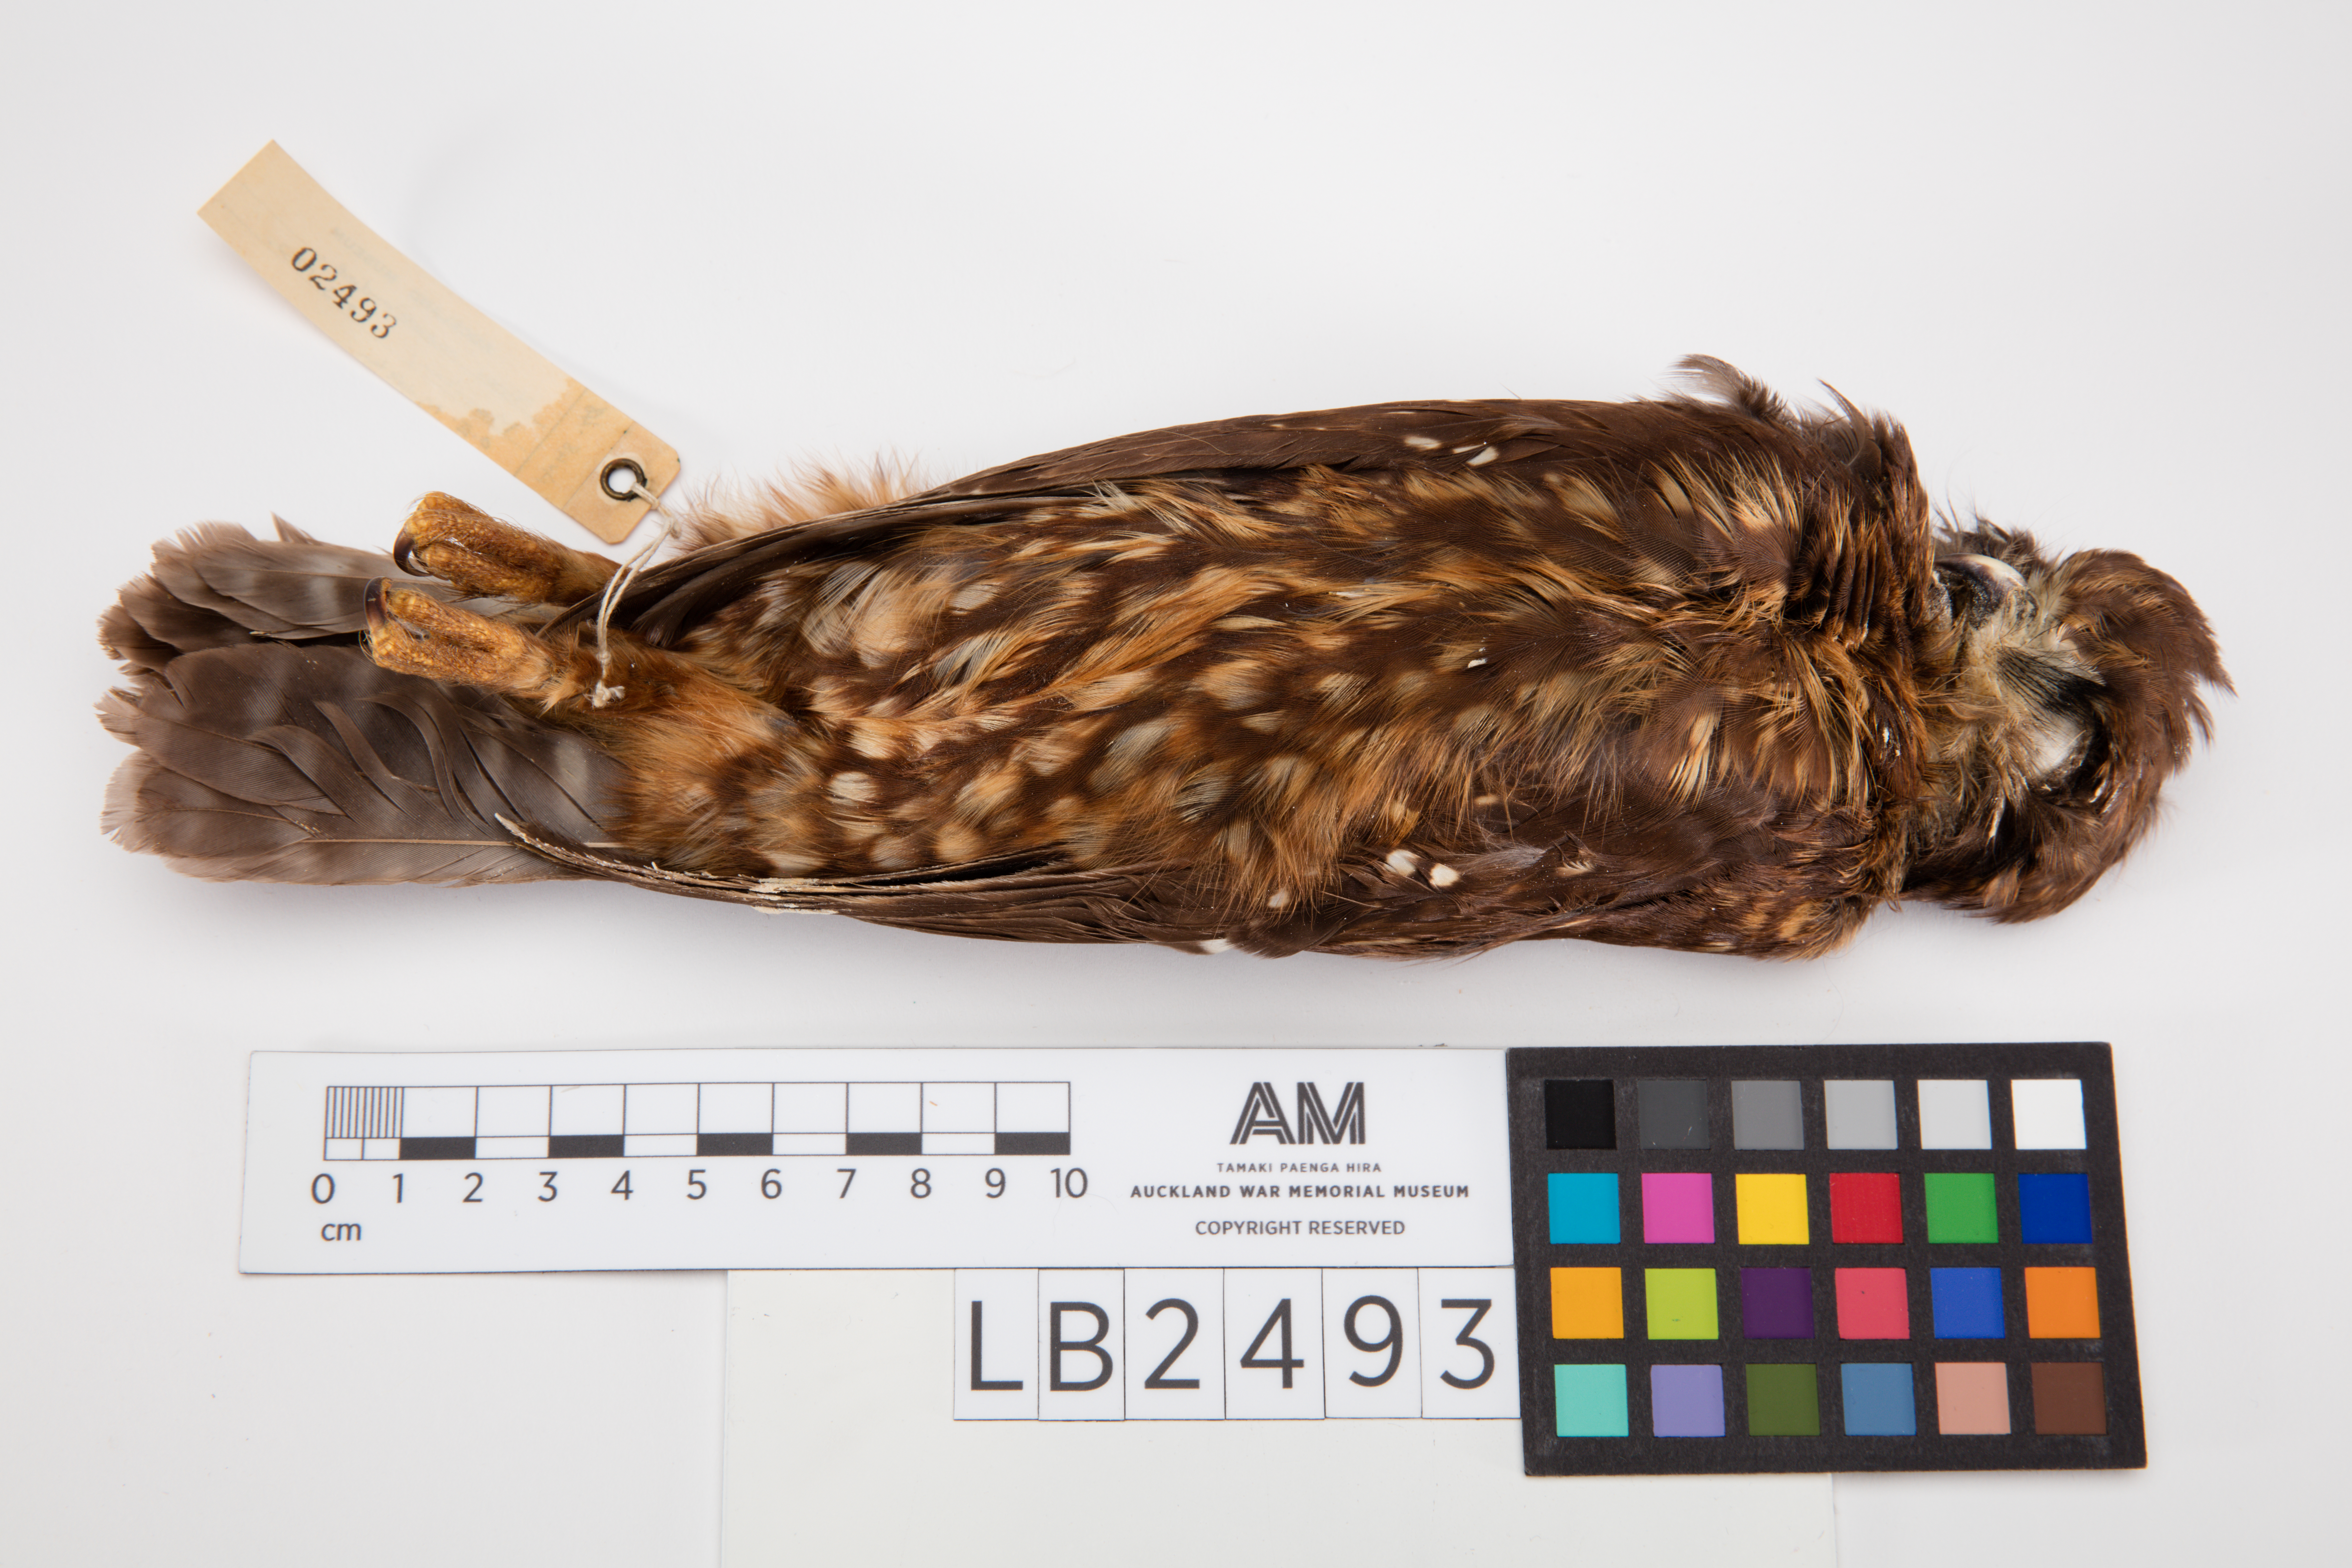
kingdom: Animalia
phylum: Chordata
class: Aves
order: Strigiformes
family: Strigidae
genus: Ninox
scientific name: Ninox novaeseelandiae
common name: Morepork
